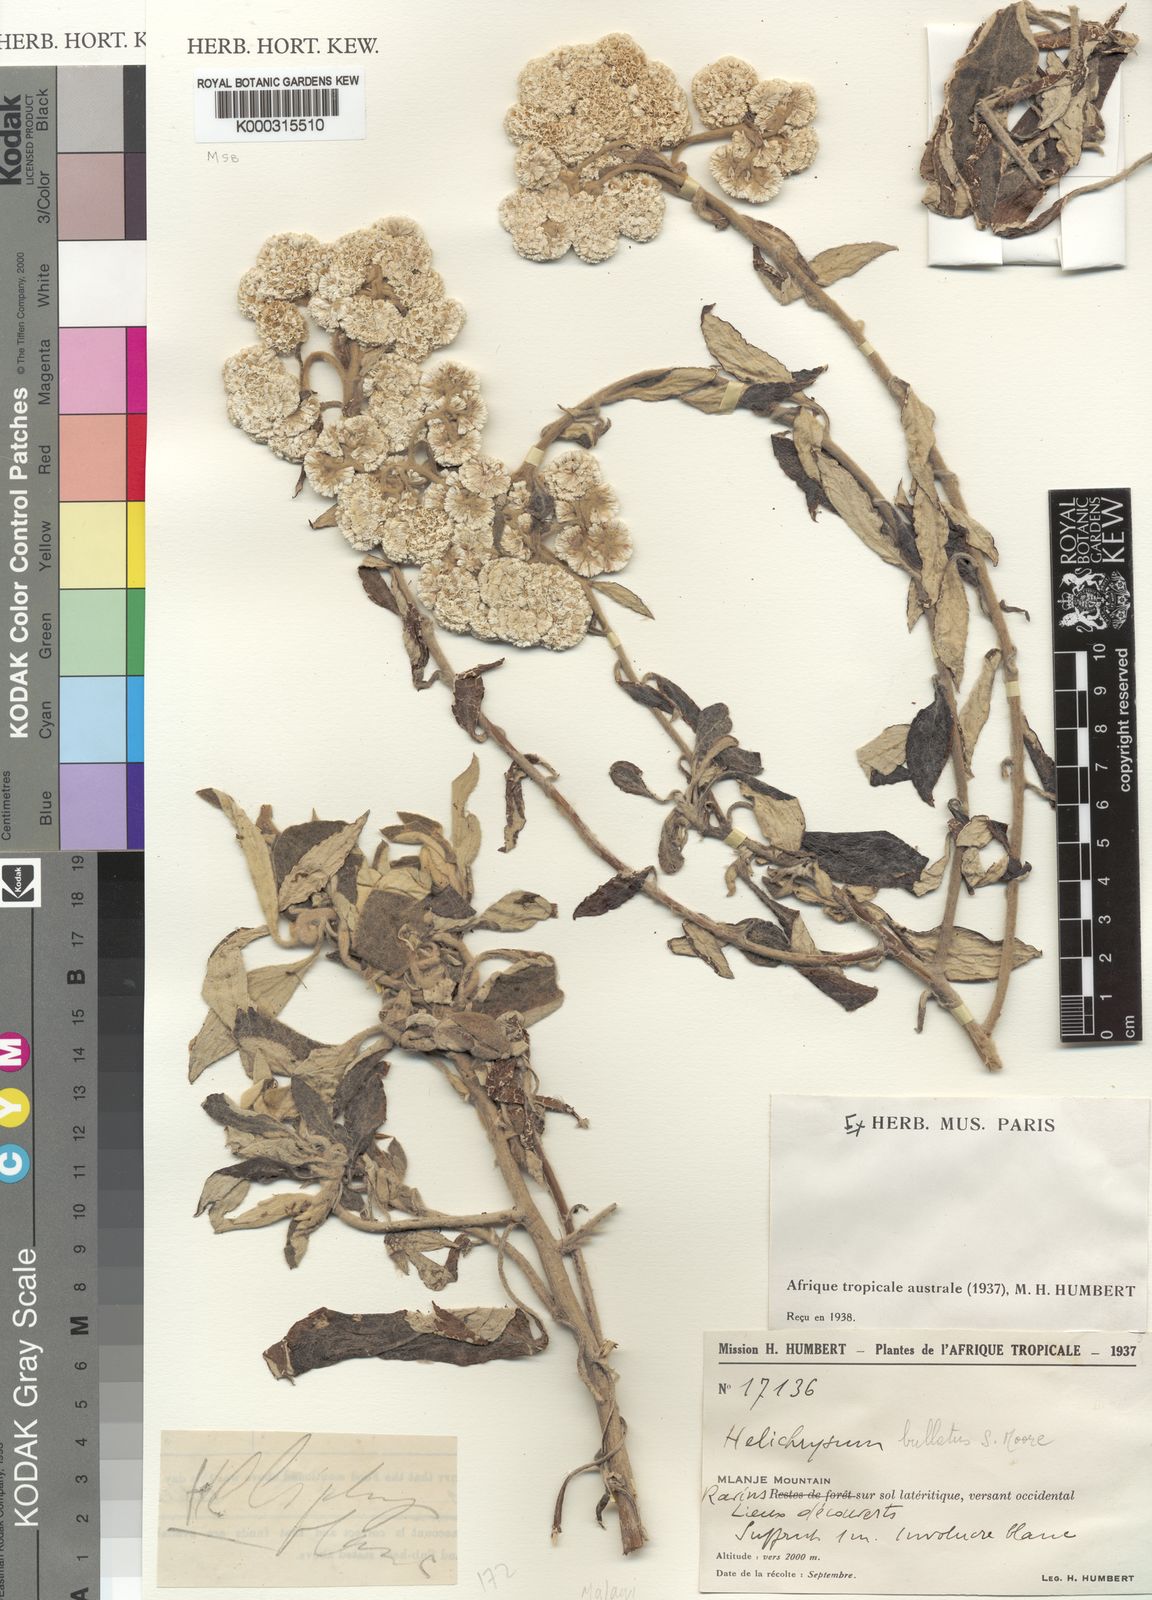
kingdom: Plantae
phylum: Tracheophyta
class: Magnoliopsida
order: Asterales
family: Asteraceae
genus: Helichrysum
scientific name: Helichrysum bullulatum
